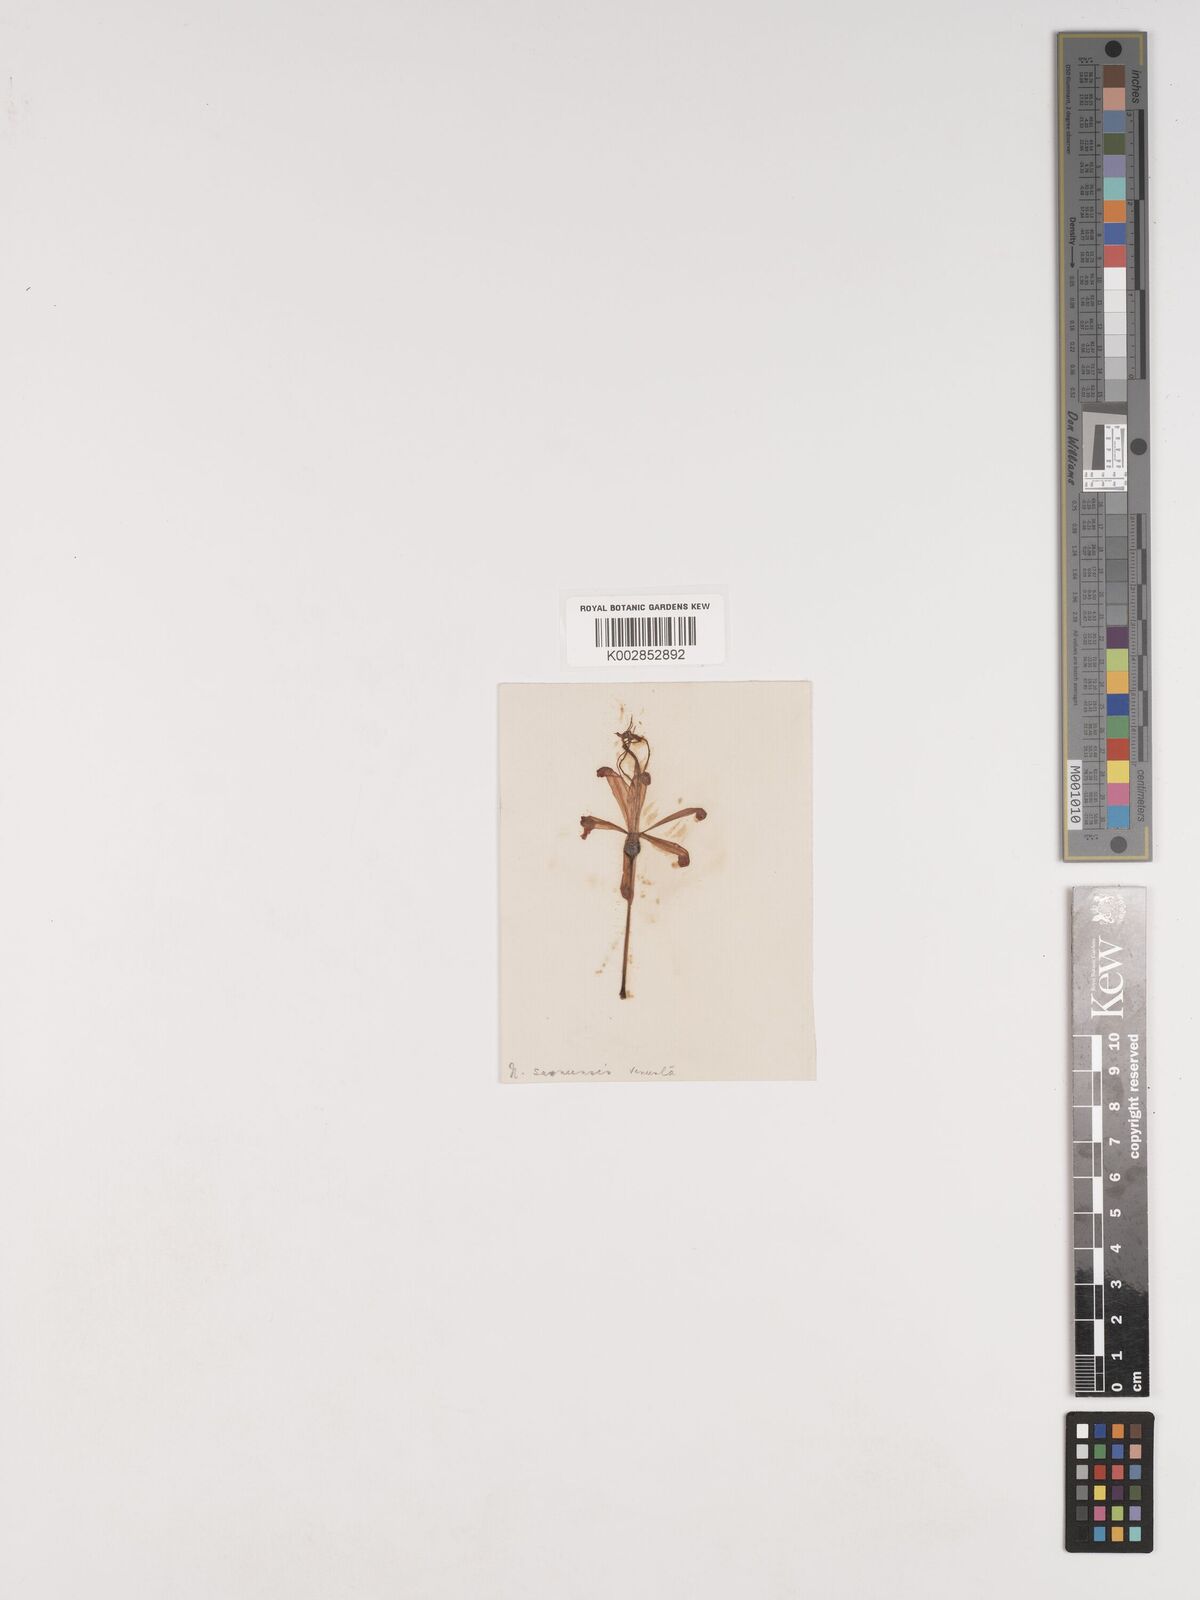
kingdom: Plantae
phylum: Tracheophyta
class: Liliopsida
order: Asparagales
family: Amaryllidaceae
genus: Nerine
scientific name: Nerine humilis
